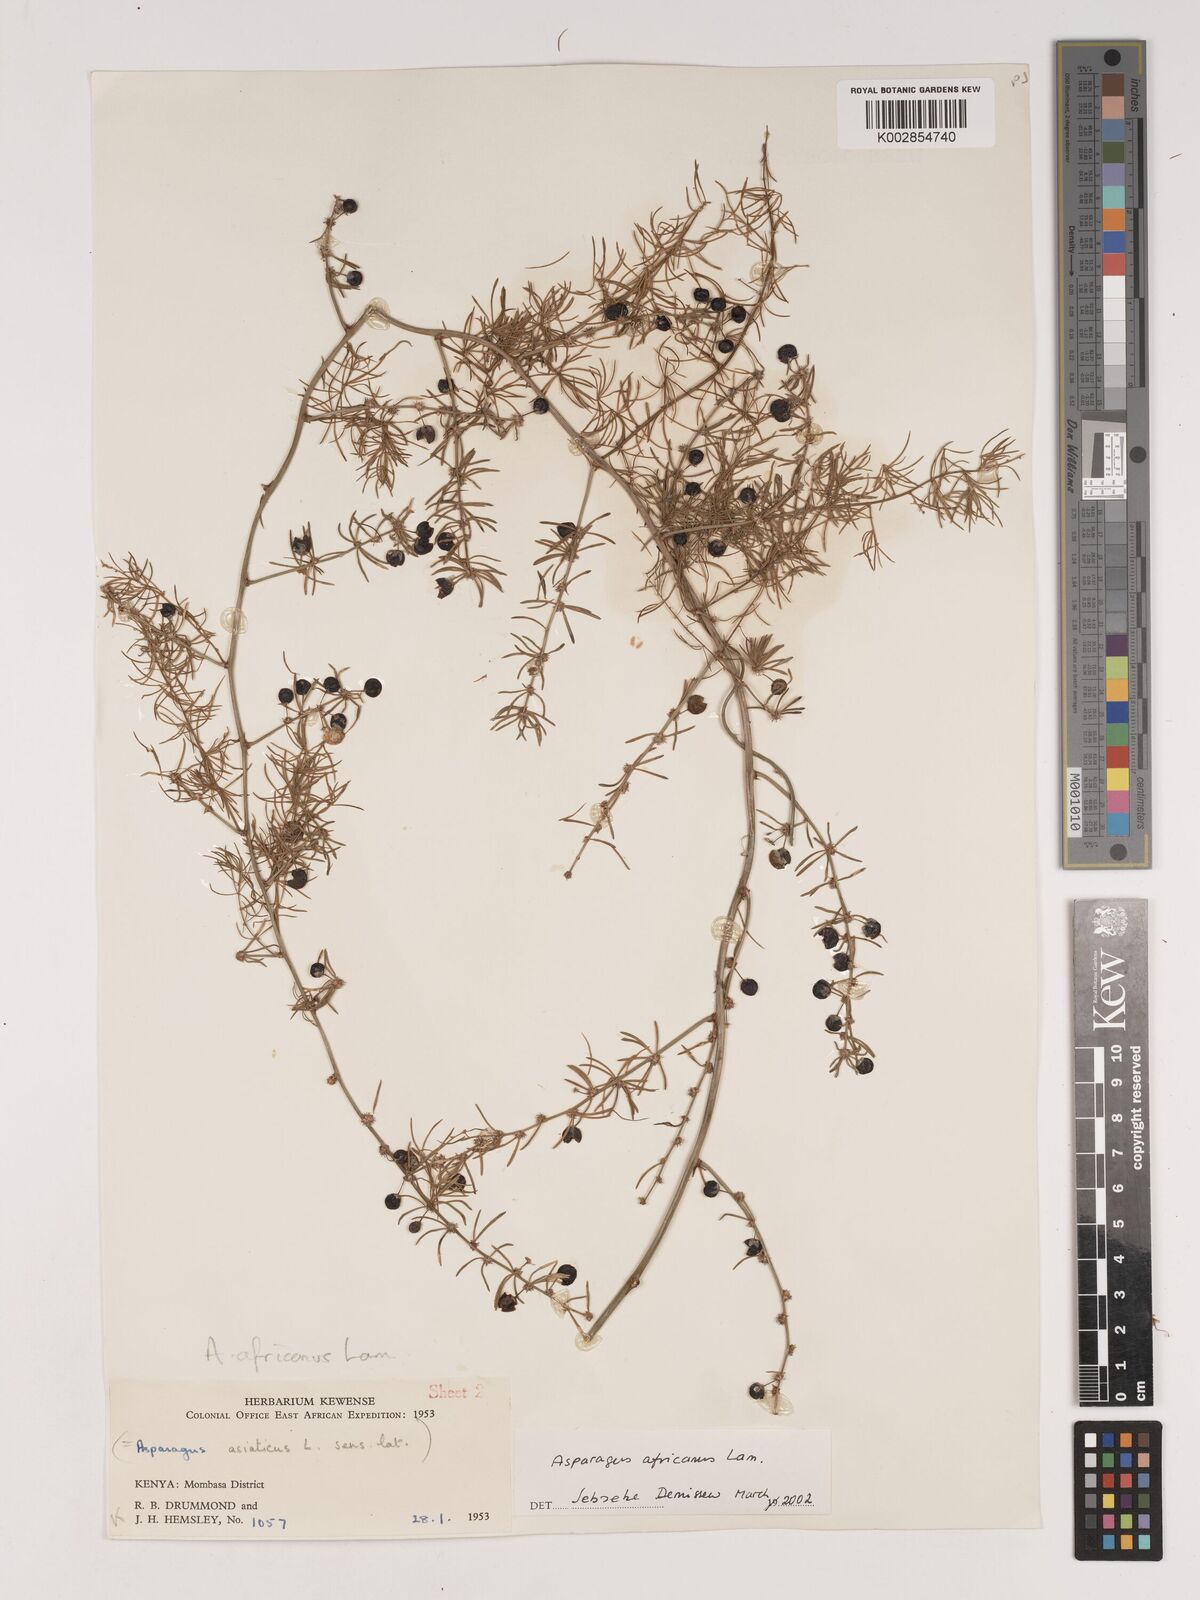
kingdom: Plantae
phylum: Tracheophyta
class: Liliopsida
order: Asparagales
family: Asparagaceae
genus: Asparagus
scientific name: Asparagus africanus
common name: Asparagus-fern
